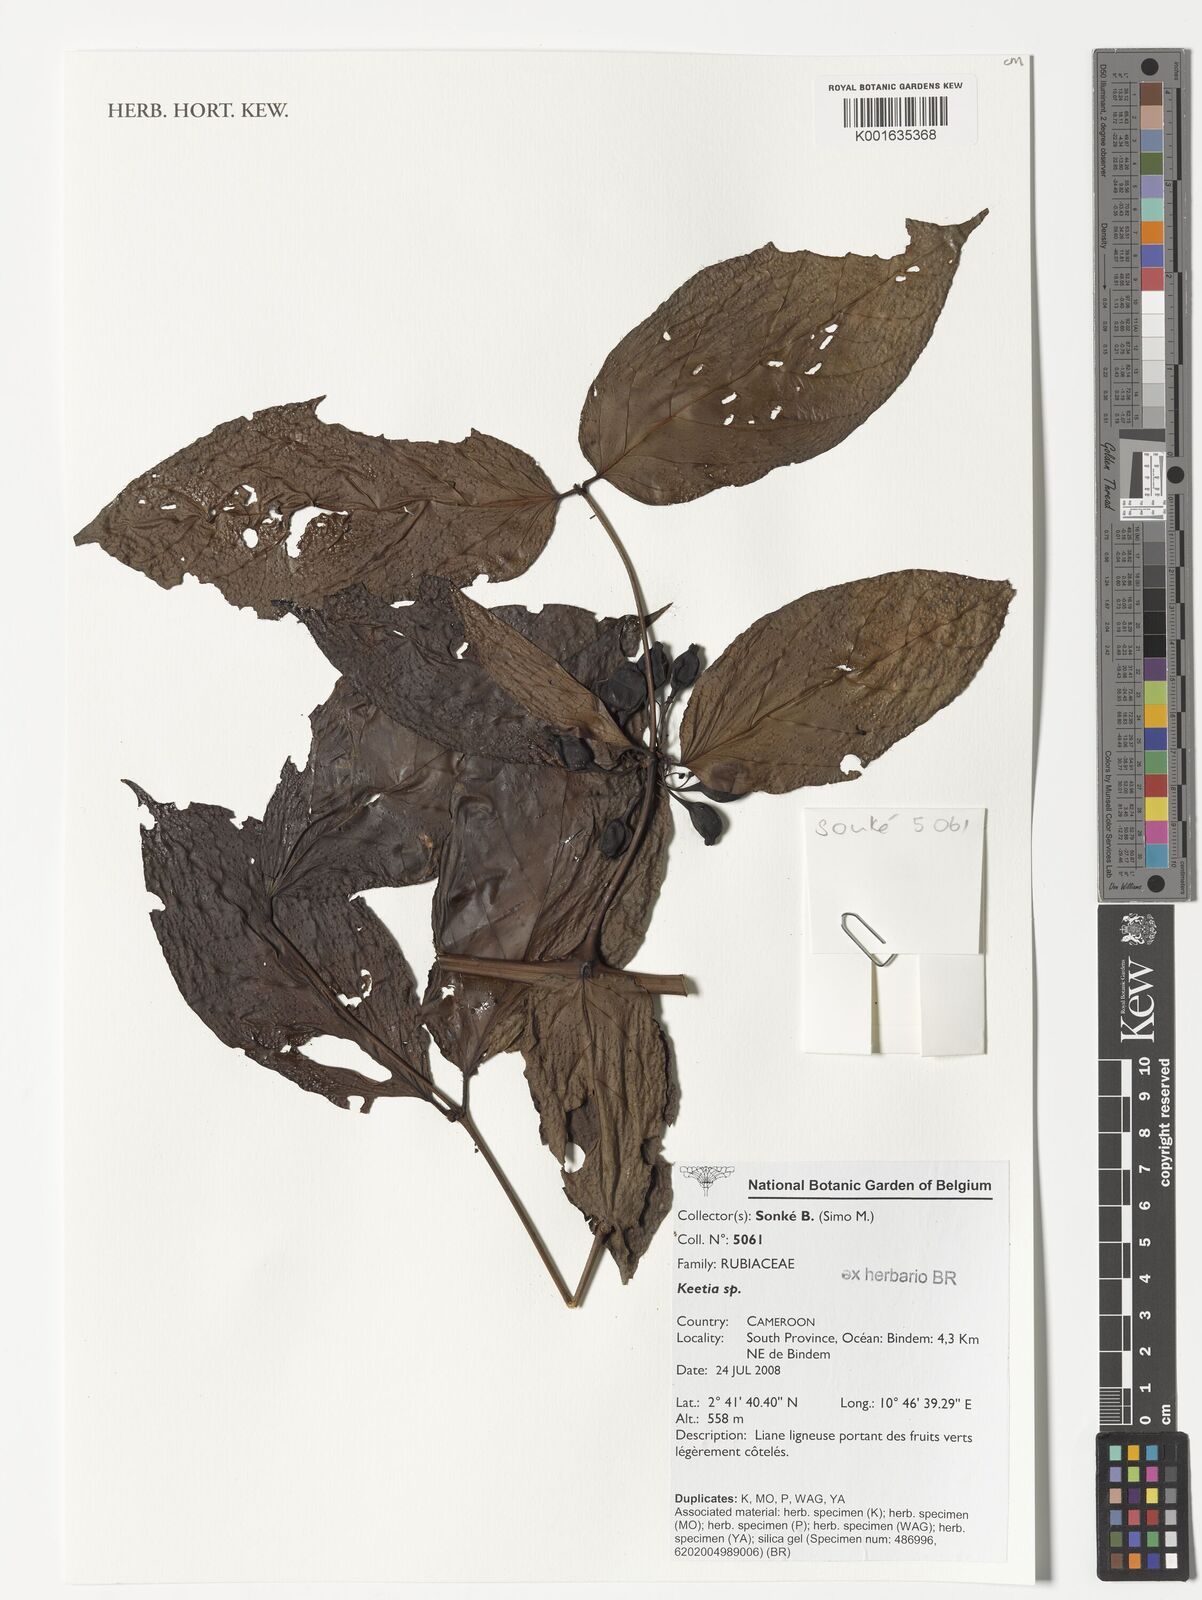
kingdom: Plantae
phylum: Tracheophyta
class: Magnoliopsida
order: Gentianales
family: Rubiaceae
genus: Keetia
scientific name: Keetia
